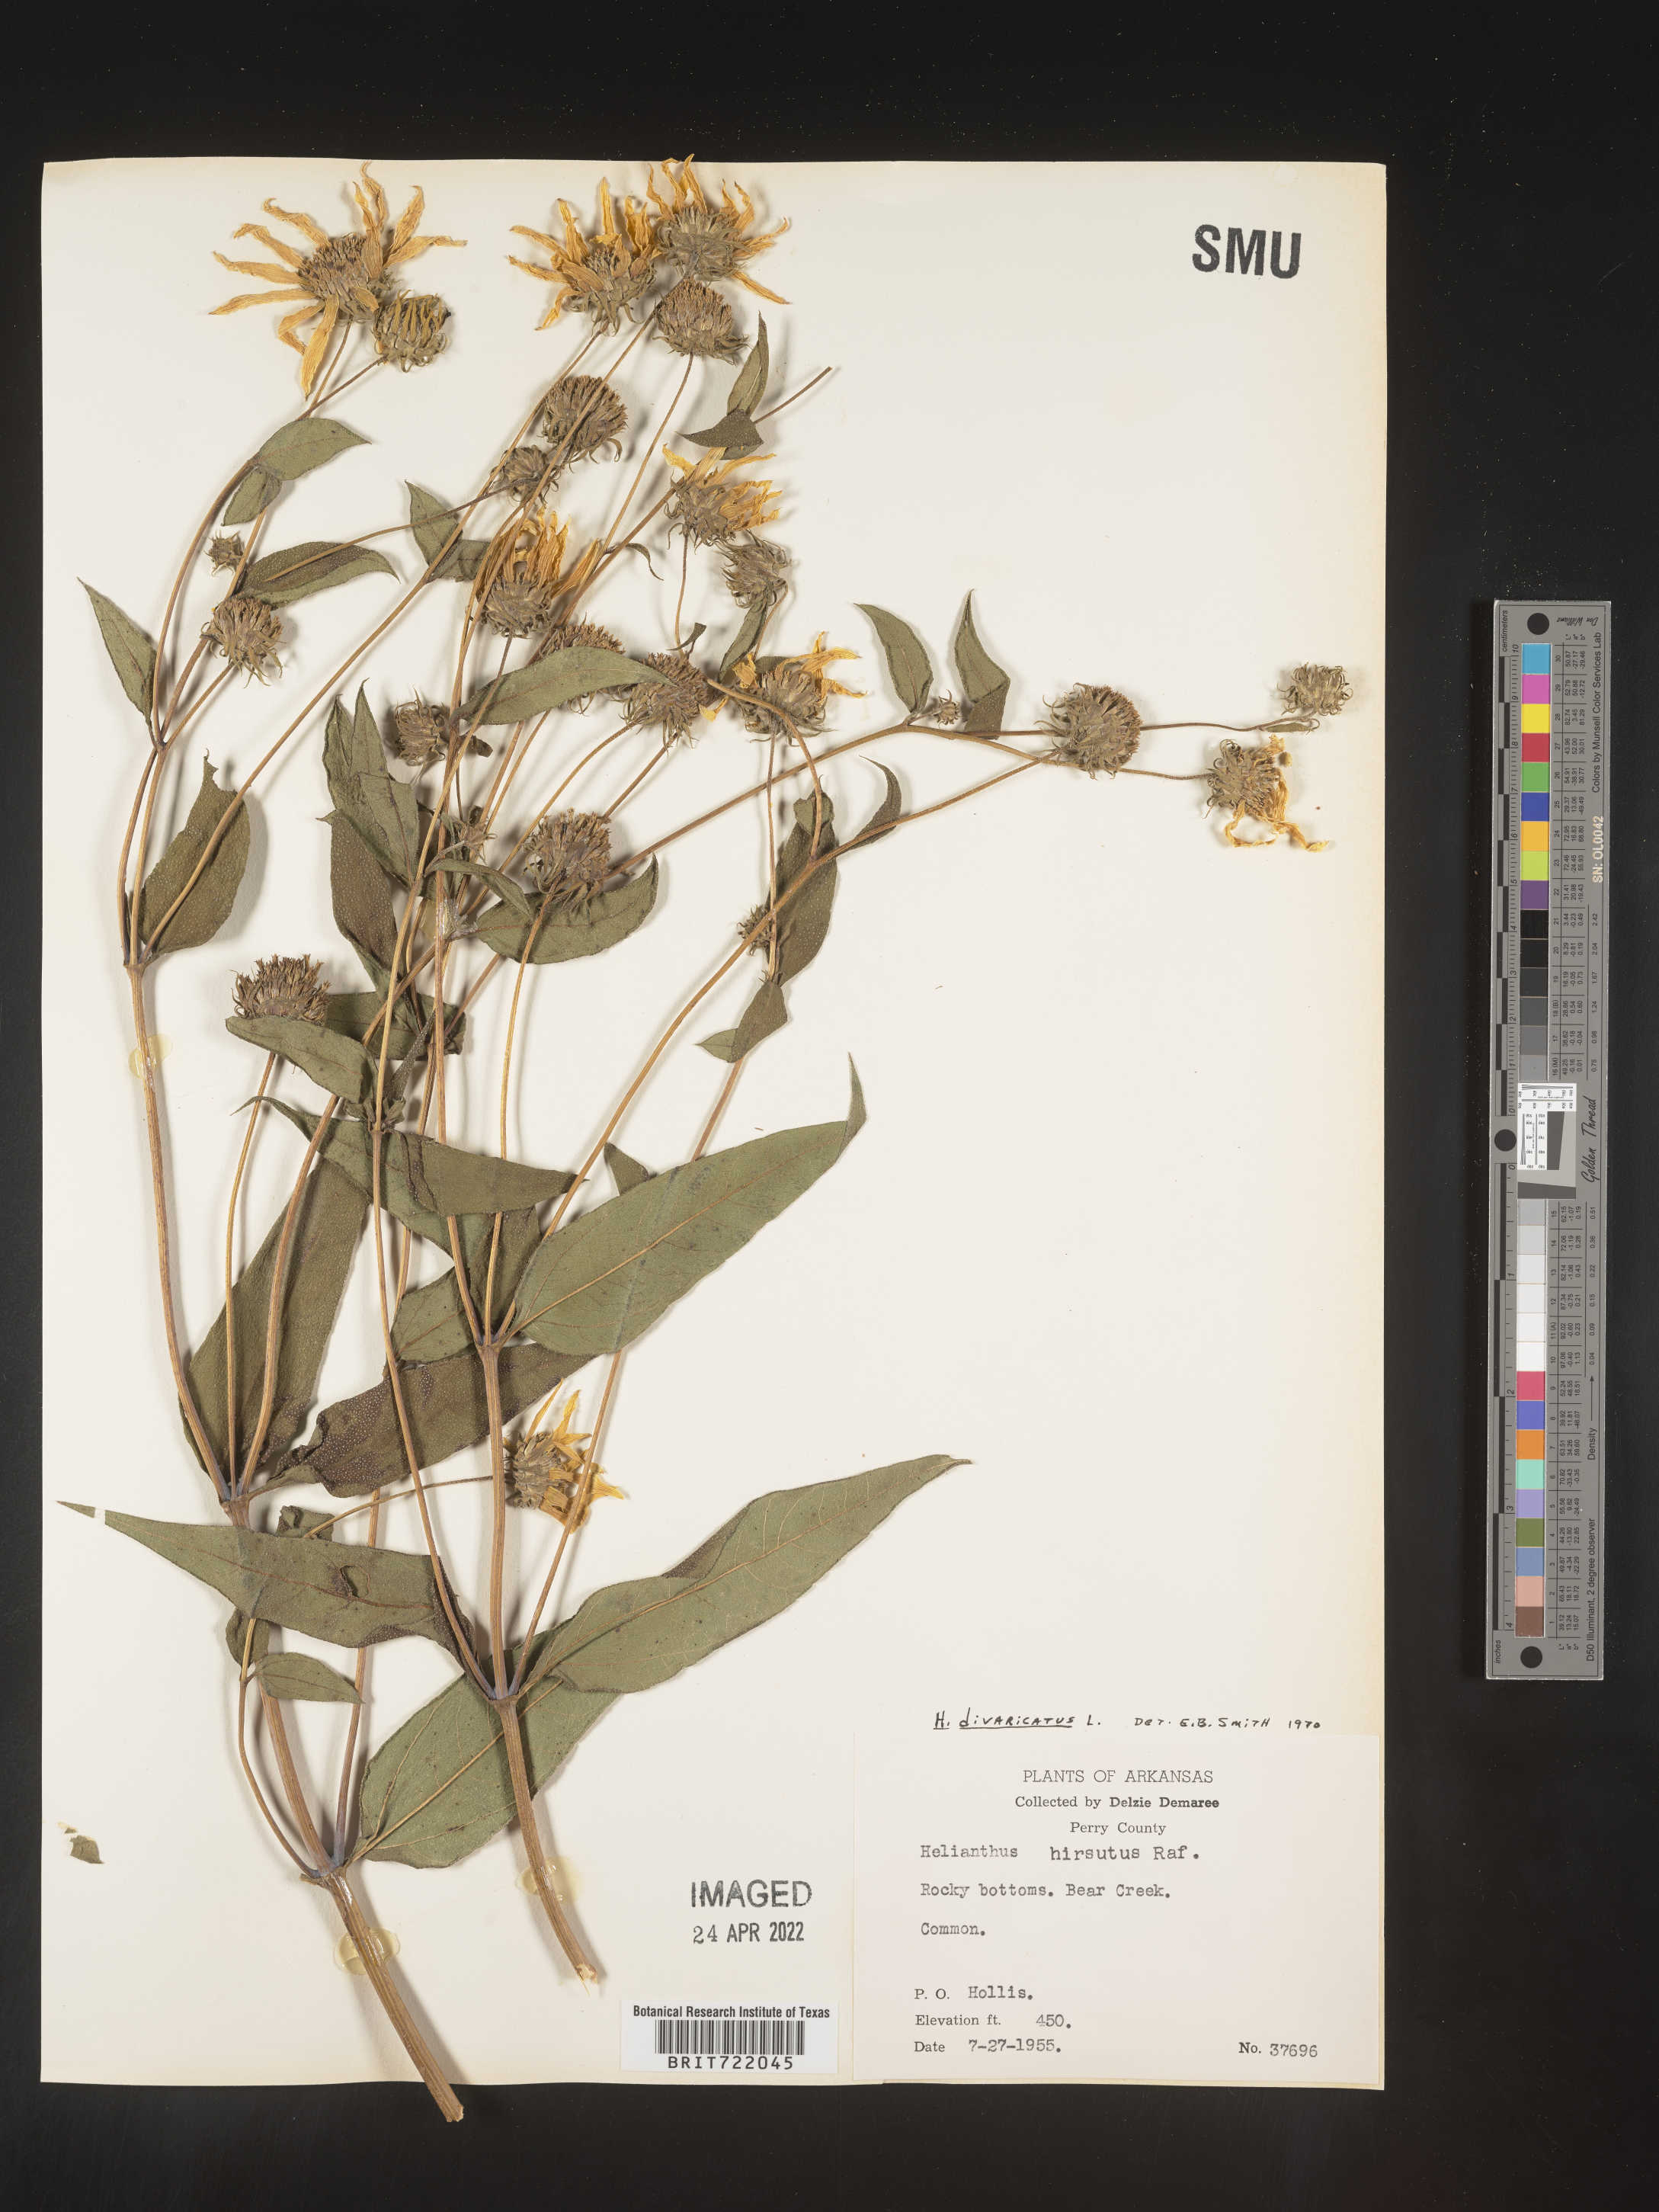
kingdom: Plantae
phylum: Tracheophyta
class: Magnoliopsida
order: Asterales
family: Asteraceae
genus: Helianthus
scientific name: Helianthus divaricatus
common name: Divergent sunflower
